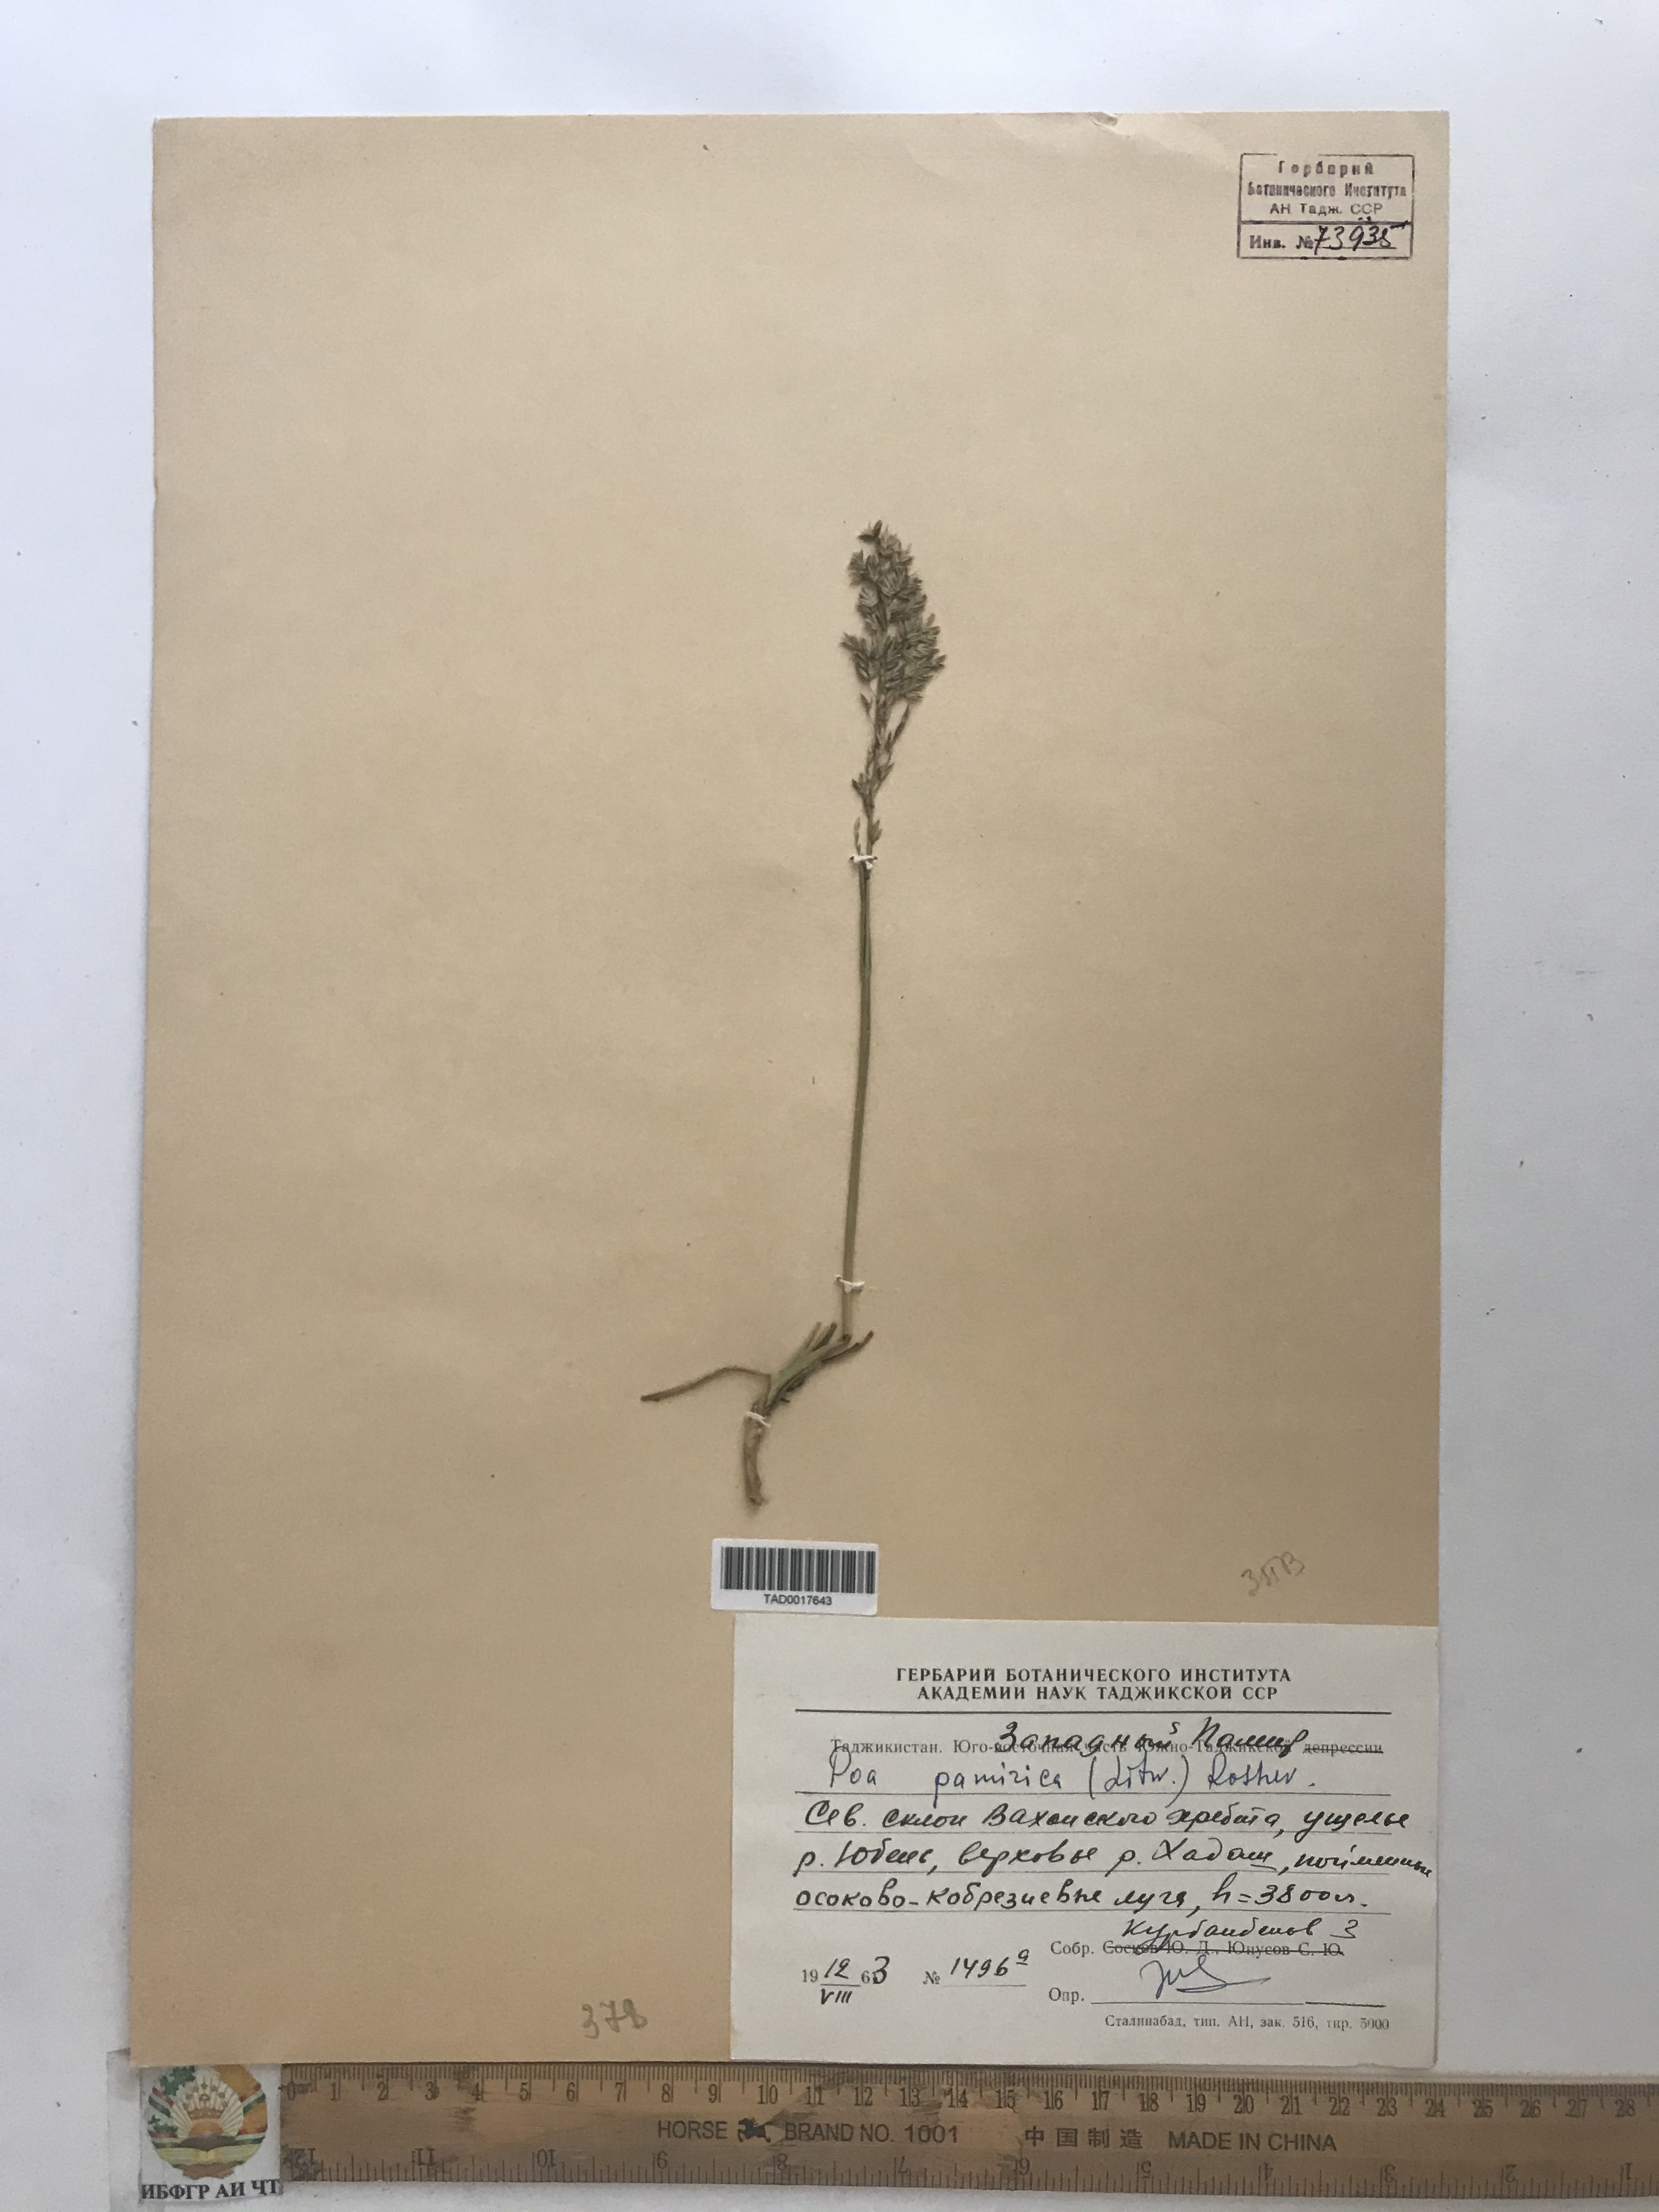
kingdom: Plantae
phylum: Tracheophyta
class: Liliopsida
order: Poales
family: Poaceae
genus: Poa
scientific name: Poa tianschanica
